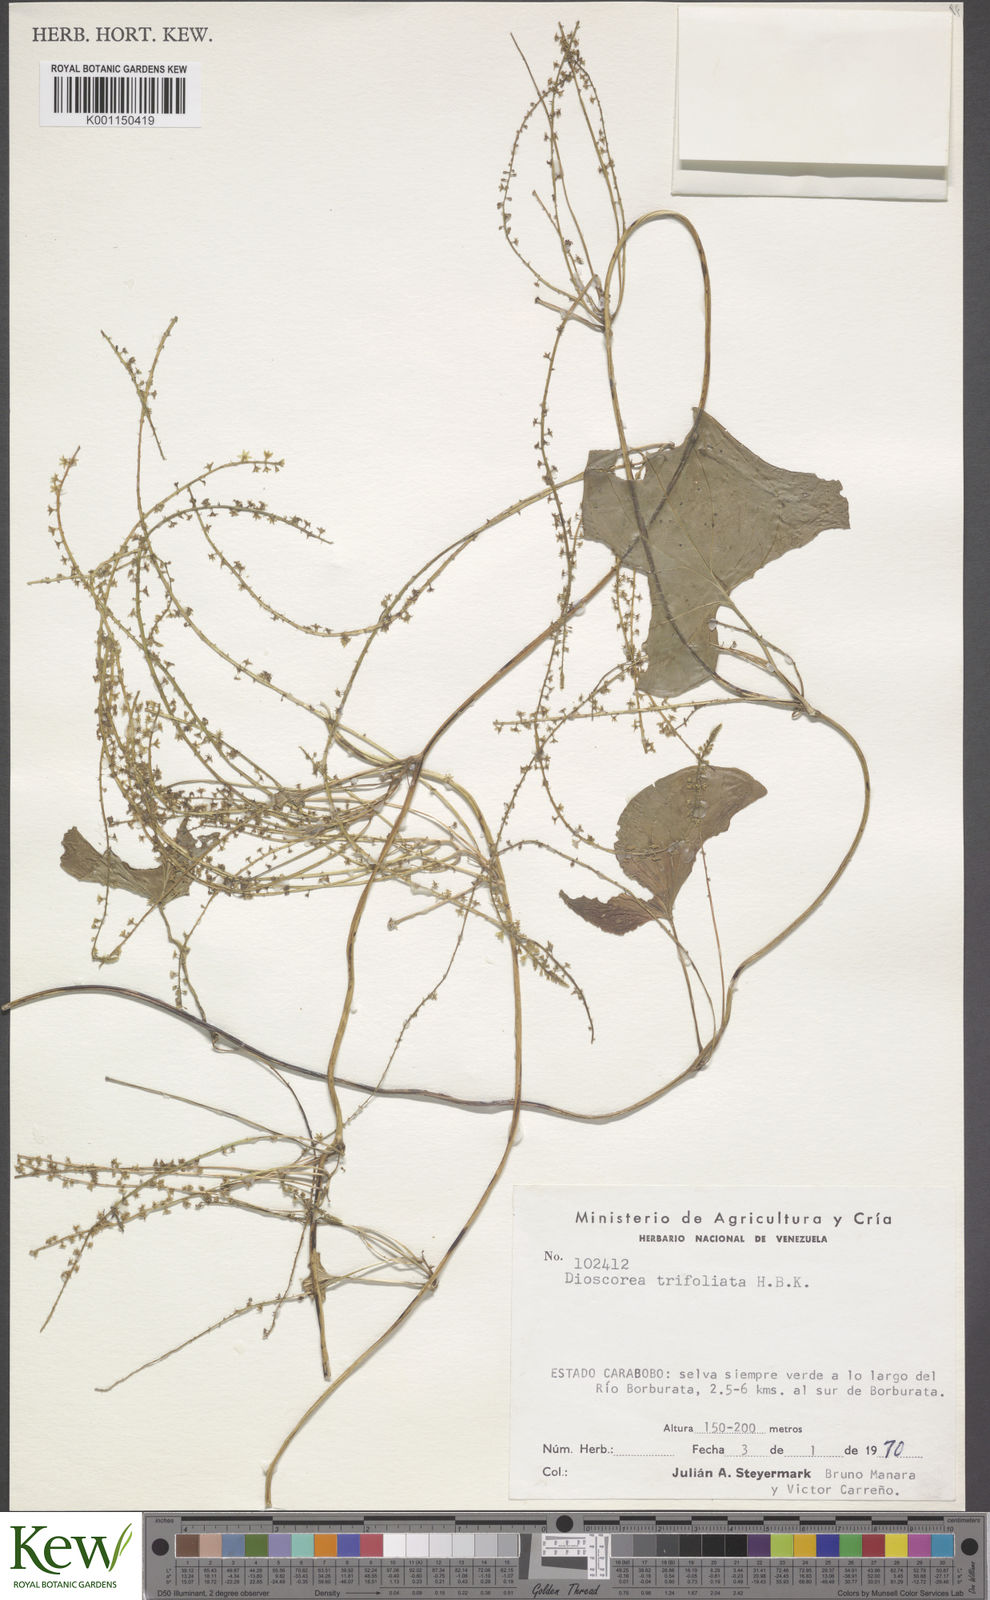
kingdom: Plantae
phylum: Tracheophyta
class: Liliopsida
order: Dioscoreales
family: Dioscoreaceae
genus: Dioscorea
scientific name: Dioscorea trifoliata
